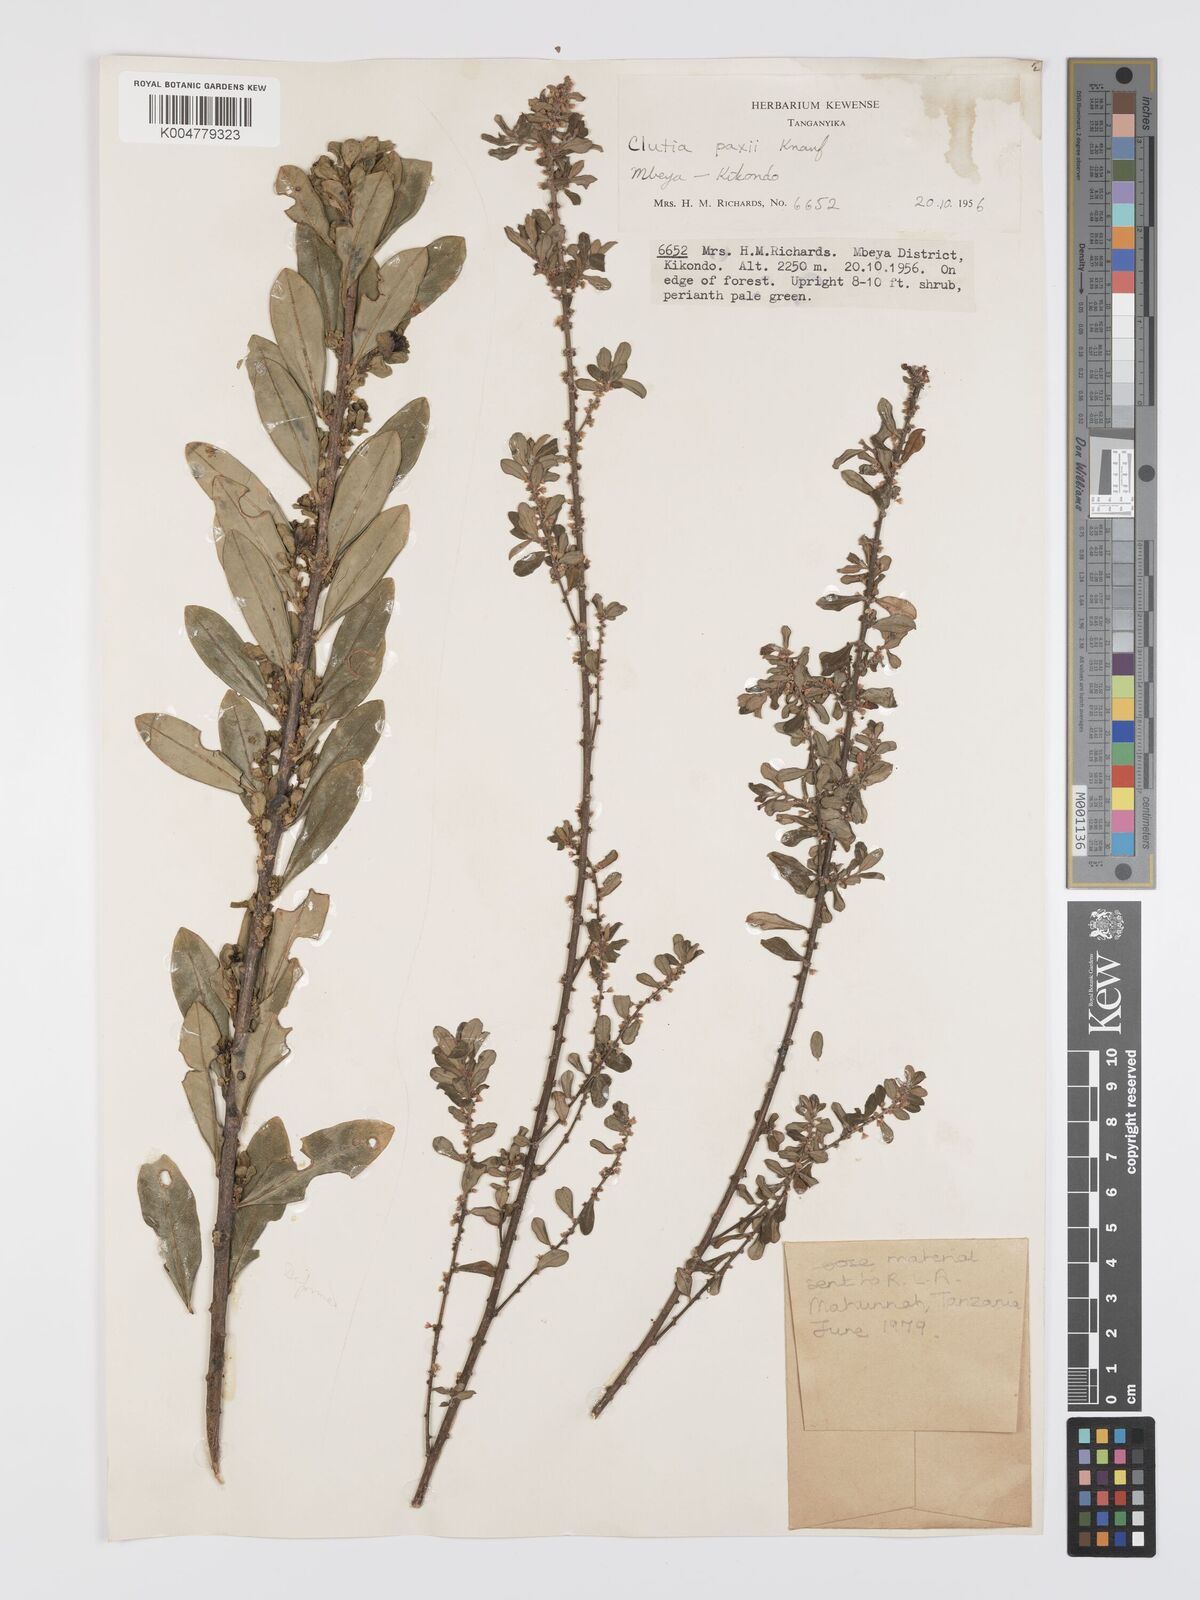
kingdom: Plantae
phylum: Tracheophyta
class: Magnoliopsida
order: Malpighiales
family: Peraceae
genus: Clutia
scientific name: Clutia paxii
